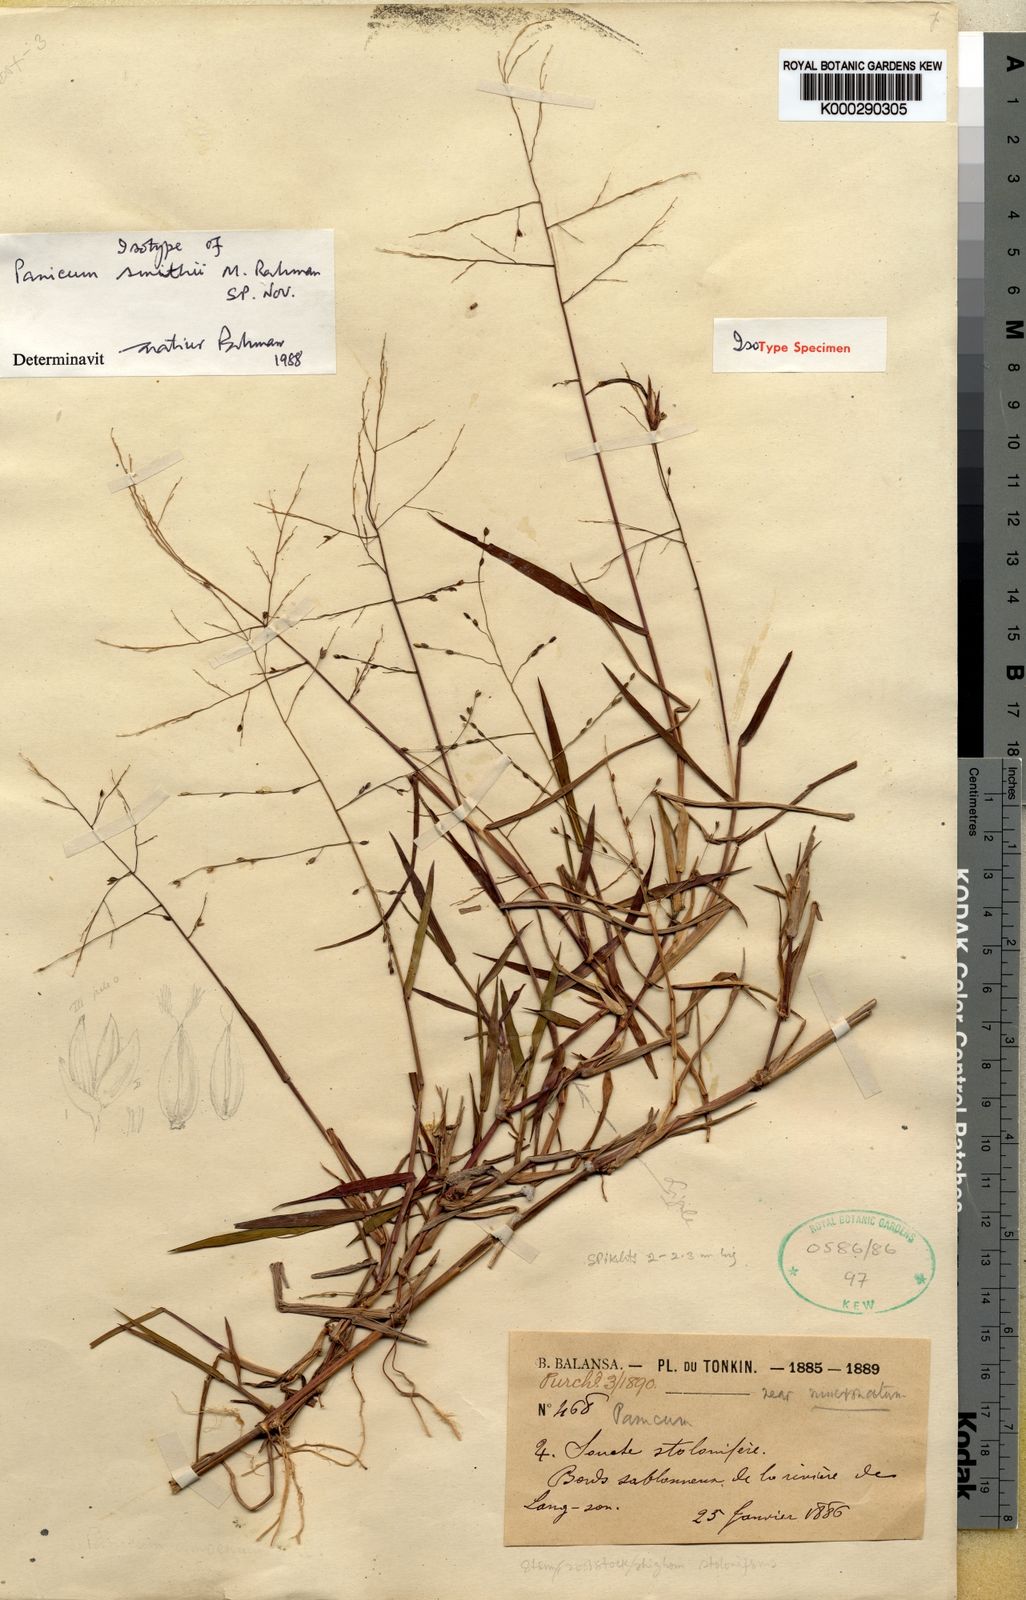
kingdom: Plantae
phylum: Tracheophyta
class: Liliopsida
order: Poales
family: Poaceae
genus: Panicum
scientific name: Panicum smithii
